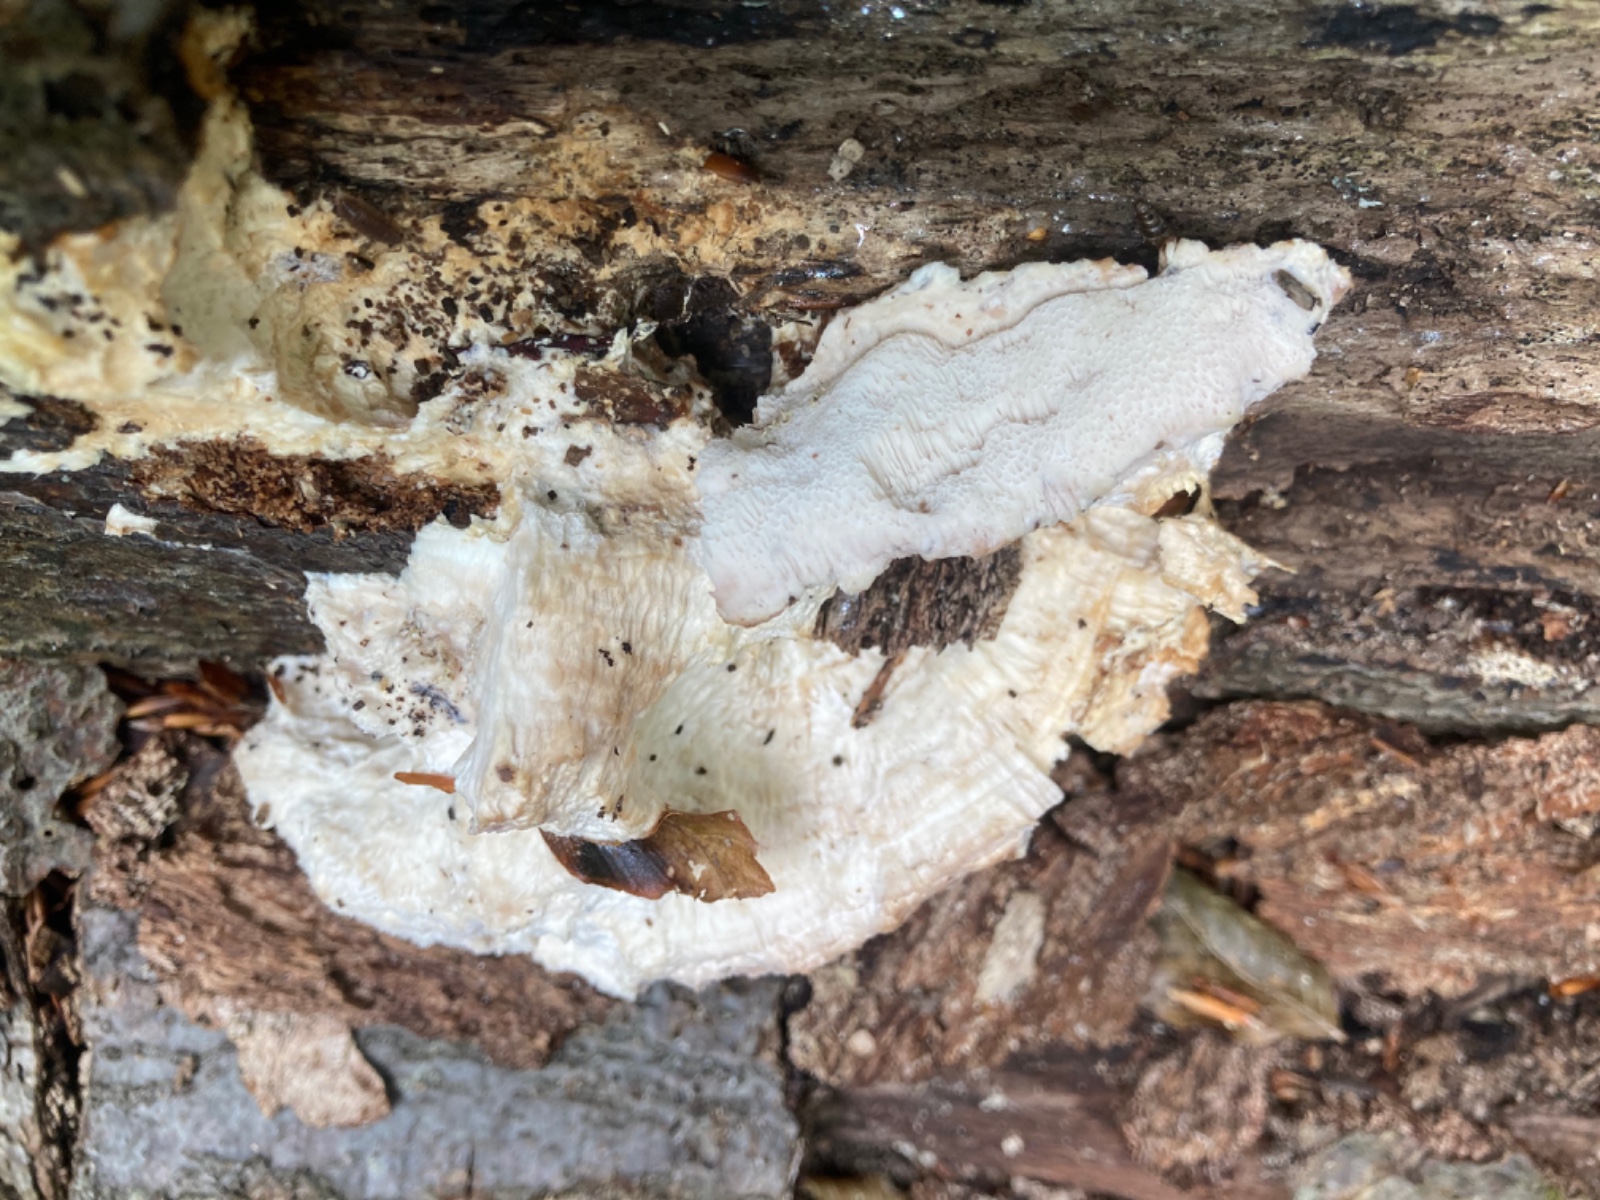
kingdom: Fungi
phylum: Basidiomycota
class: Agaricomycetes
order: Polyporales
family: Meruliaceae
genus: Pappia
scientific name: Pappia fissilis
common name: sej fedtporesvamp
